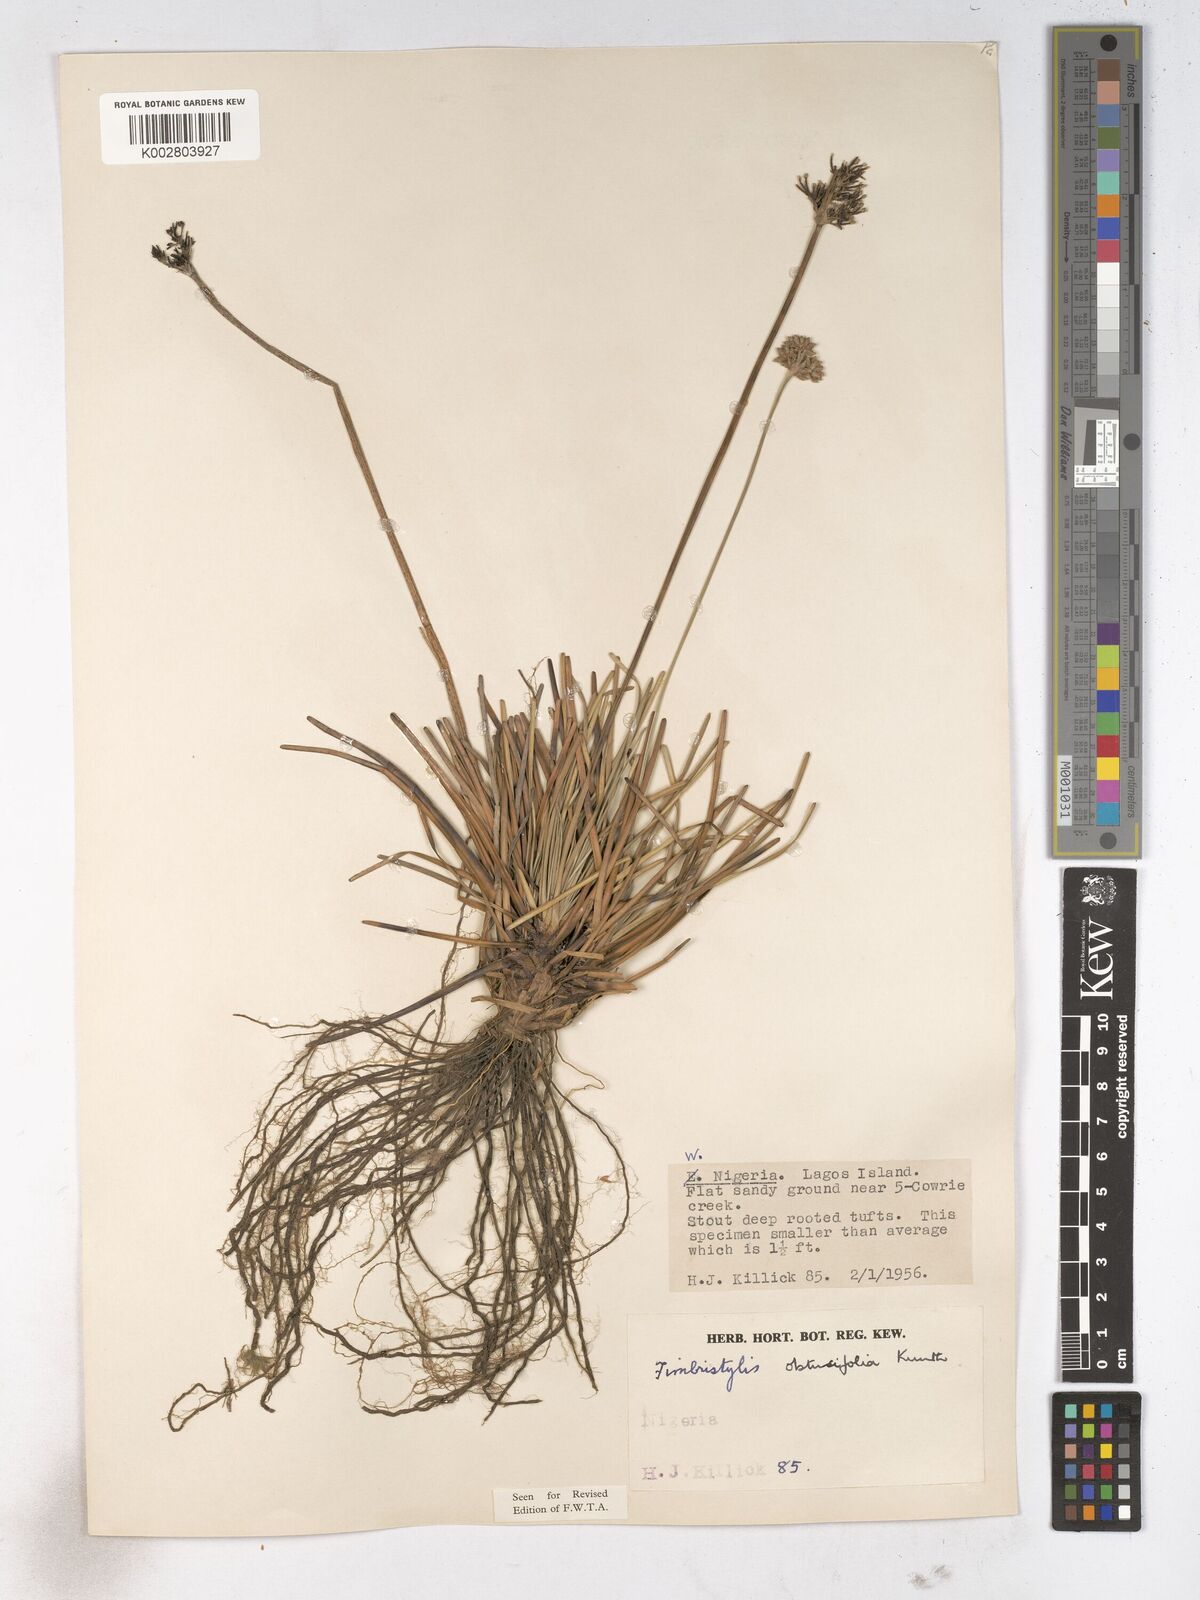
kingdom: Plantae
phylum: Tracheophyta
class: Liliopsida
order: Poales
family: Cyperaceae
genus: Fimbristylis
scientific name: Fimbristylis cymosa
